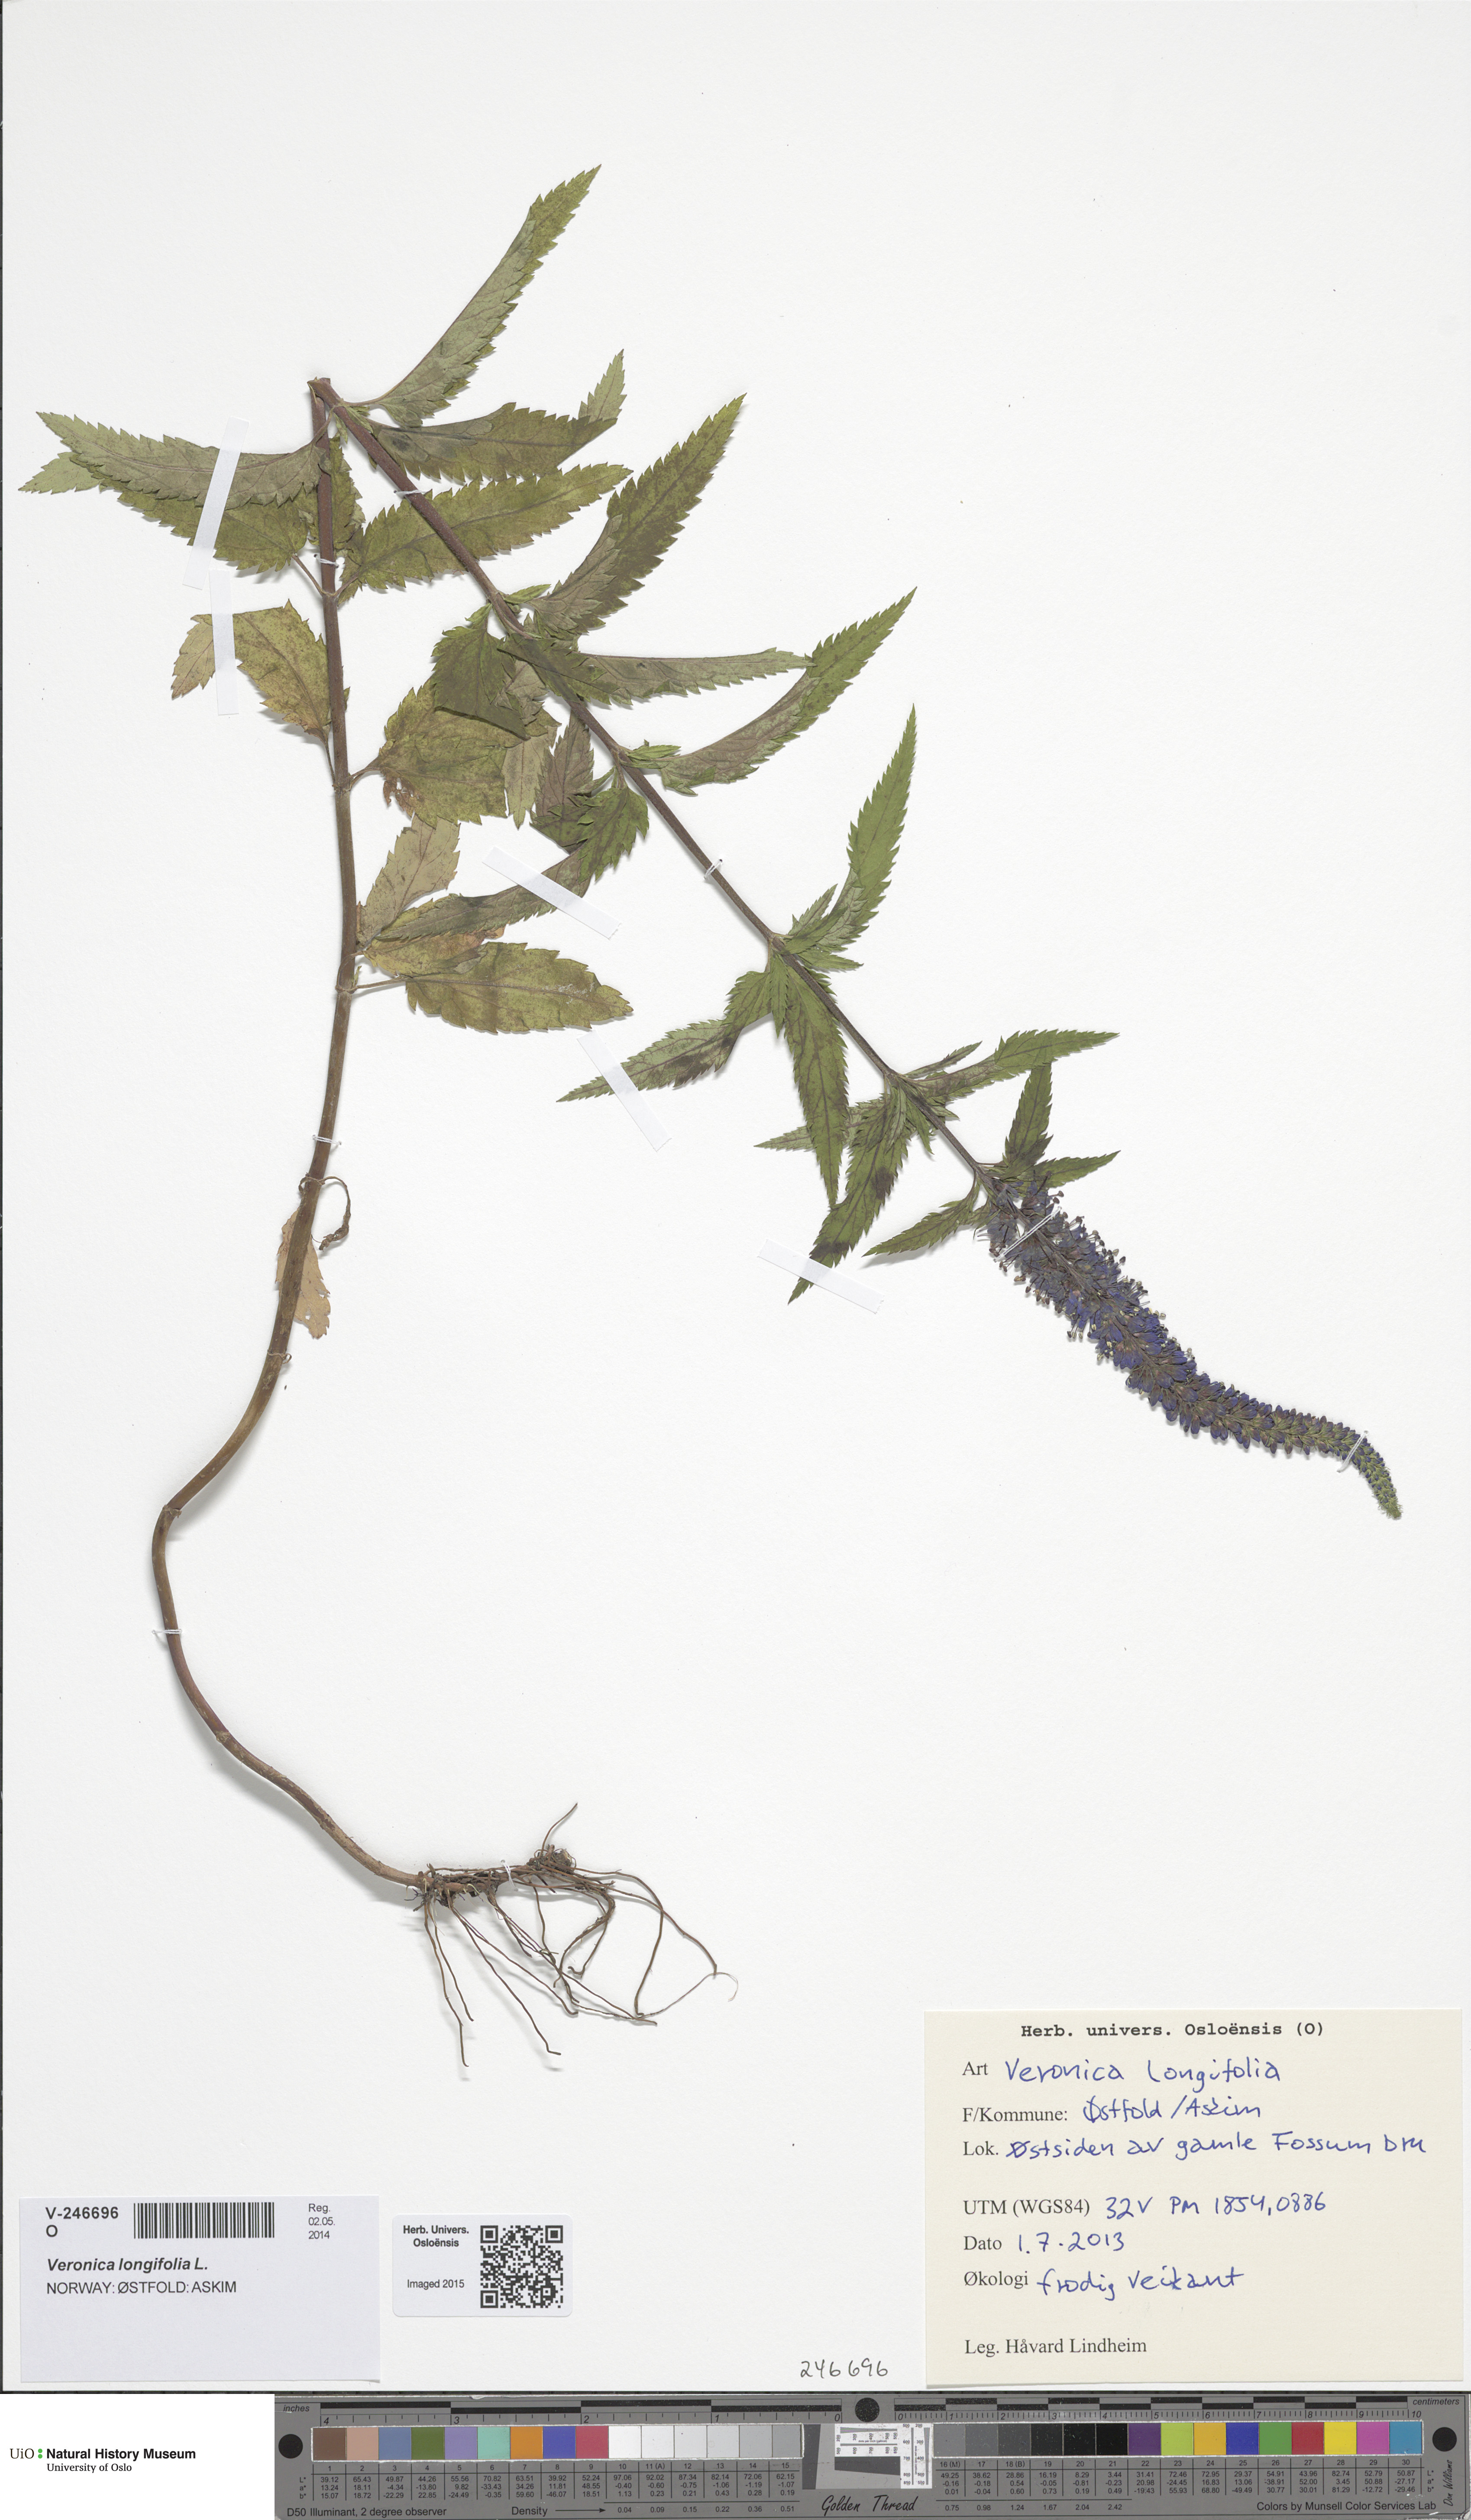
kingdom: Plantae
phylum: Tracheophyta
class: Magnoliopsida
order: Lamiales
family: Plantaginaceae
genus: Veronica
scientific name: Veronica longifolia
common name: Garden speedwell
